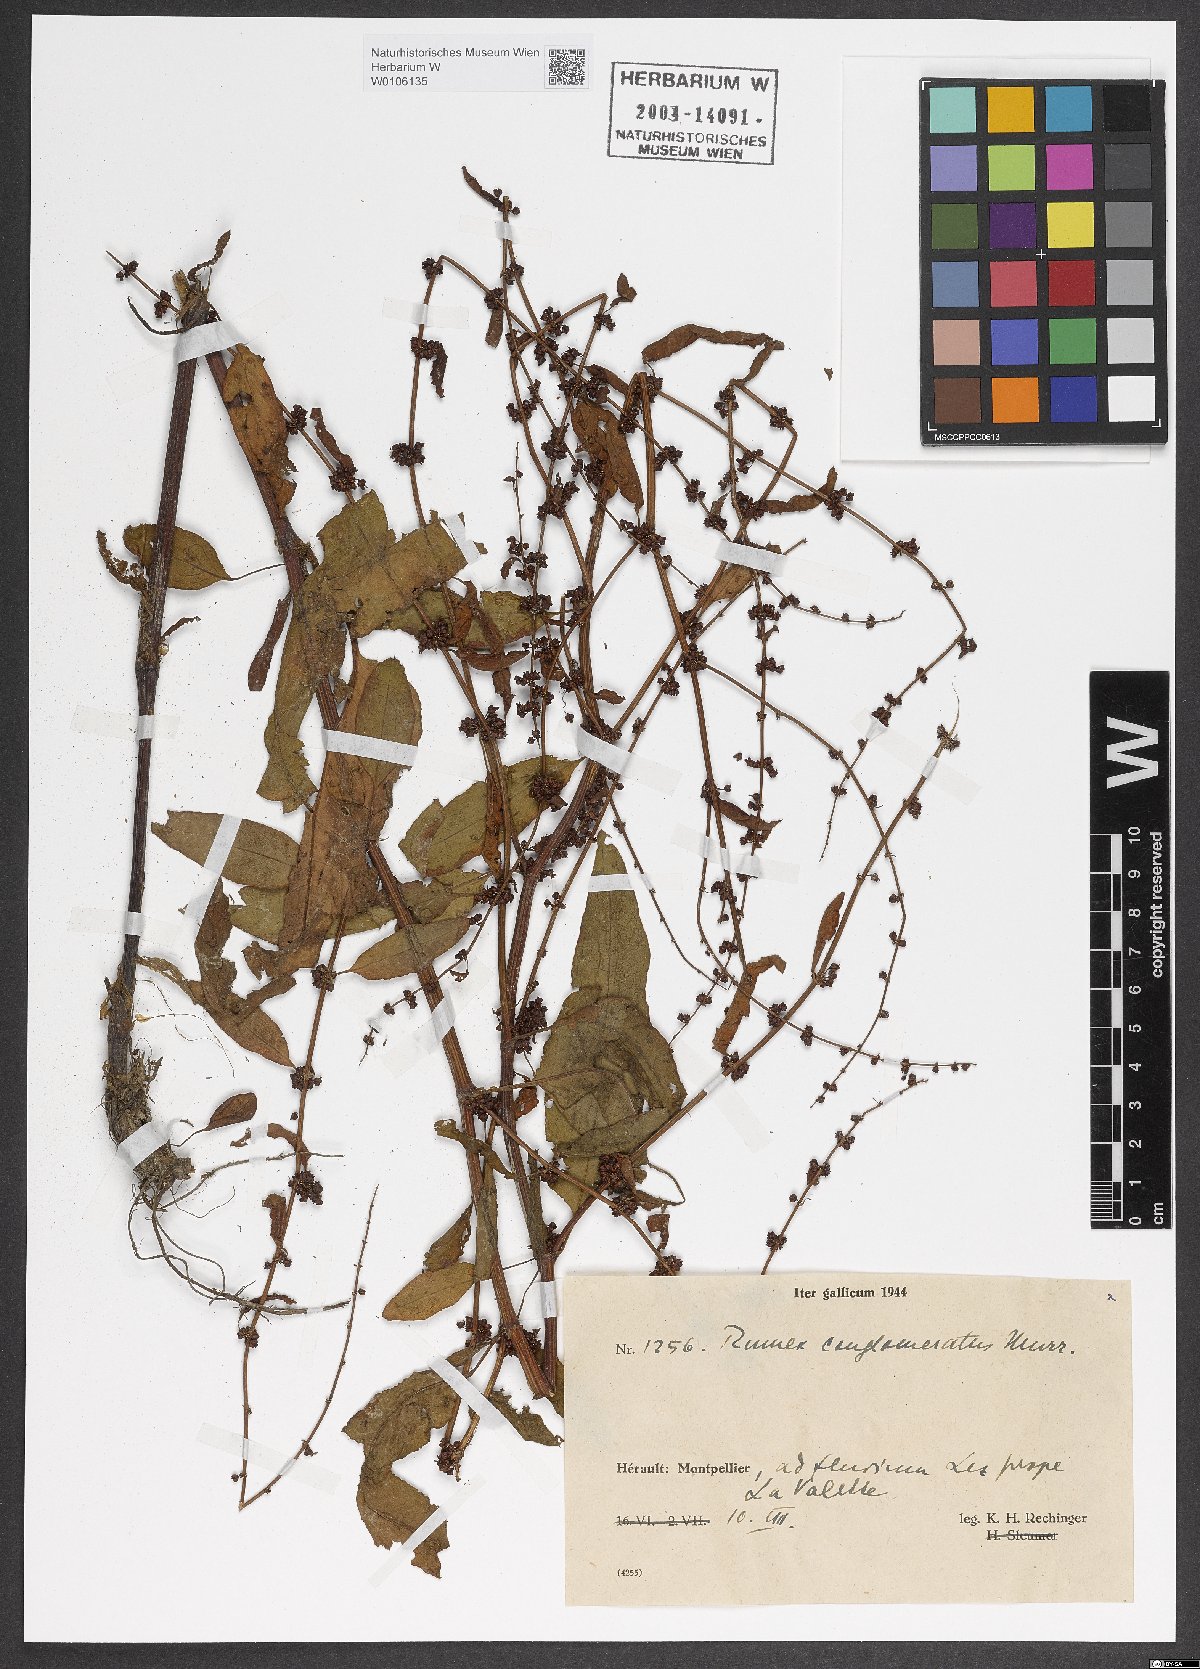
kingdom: Plantae
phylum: Tracheophyta
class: Magnoliopsida
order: Caryophyllales
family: Polygonaceae
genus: Rumex
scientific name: Rumex conglomeratus
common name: Clustered dock
